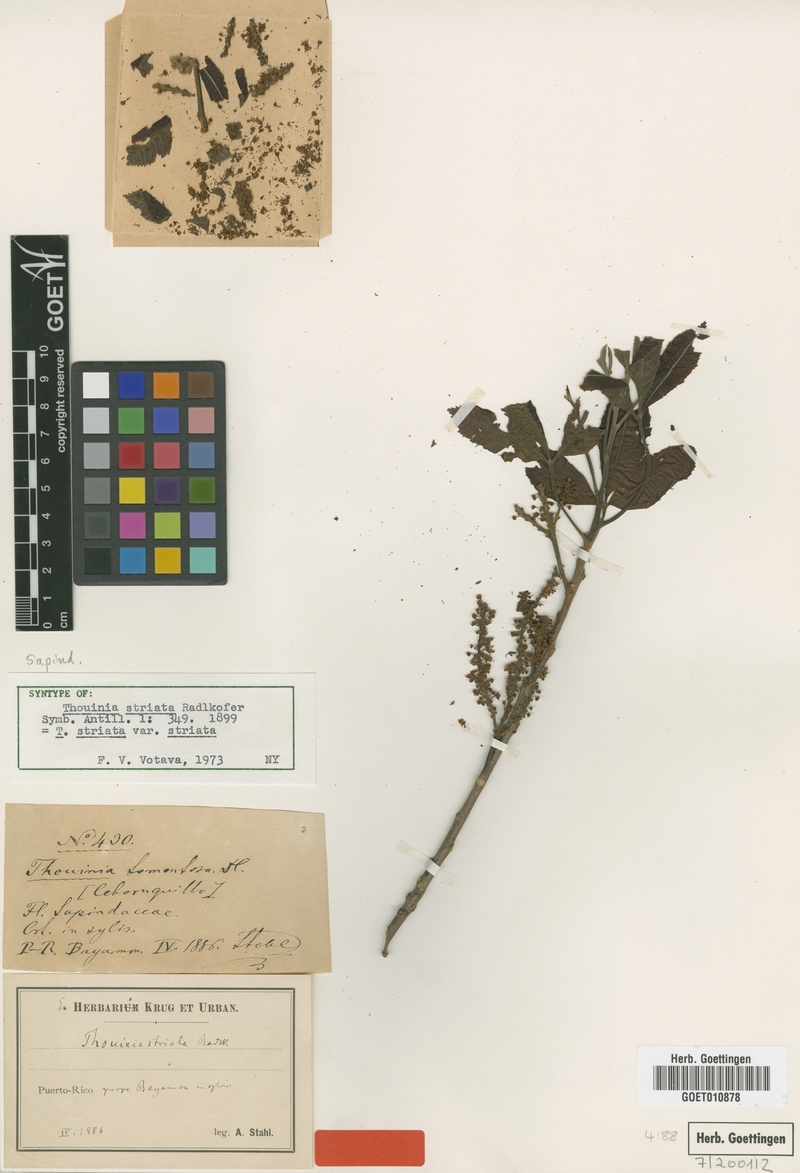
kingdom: Plantae
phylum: Tracheophyta
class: Magnoliopsida
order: Sapindales
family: Sapindaceae
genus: Thouinia
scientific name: Thouinia striata
